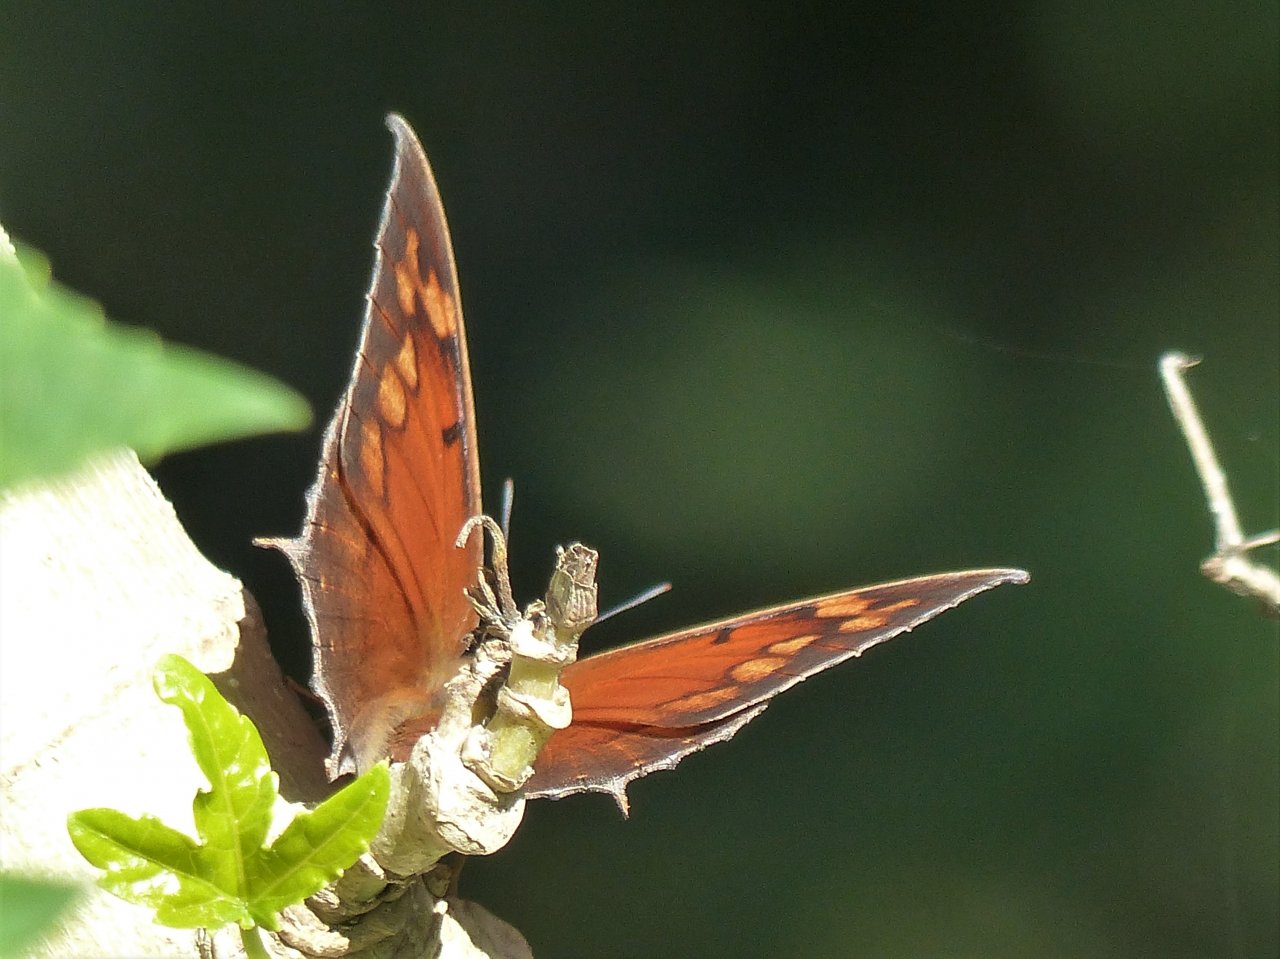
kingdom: Animalia
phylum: Arthropoda
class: Insecta
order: Lepidoptera
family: Nymphalidae
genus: Anaea
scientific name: Anaea aidea
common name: Tropical Leafwing
